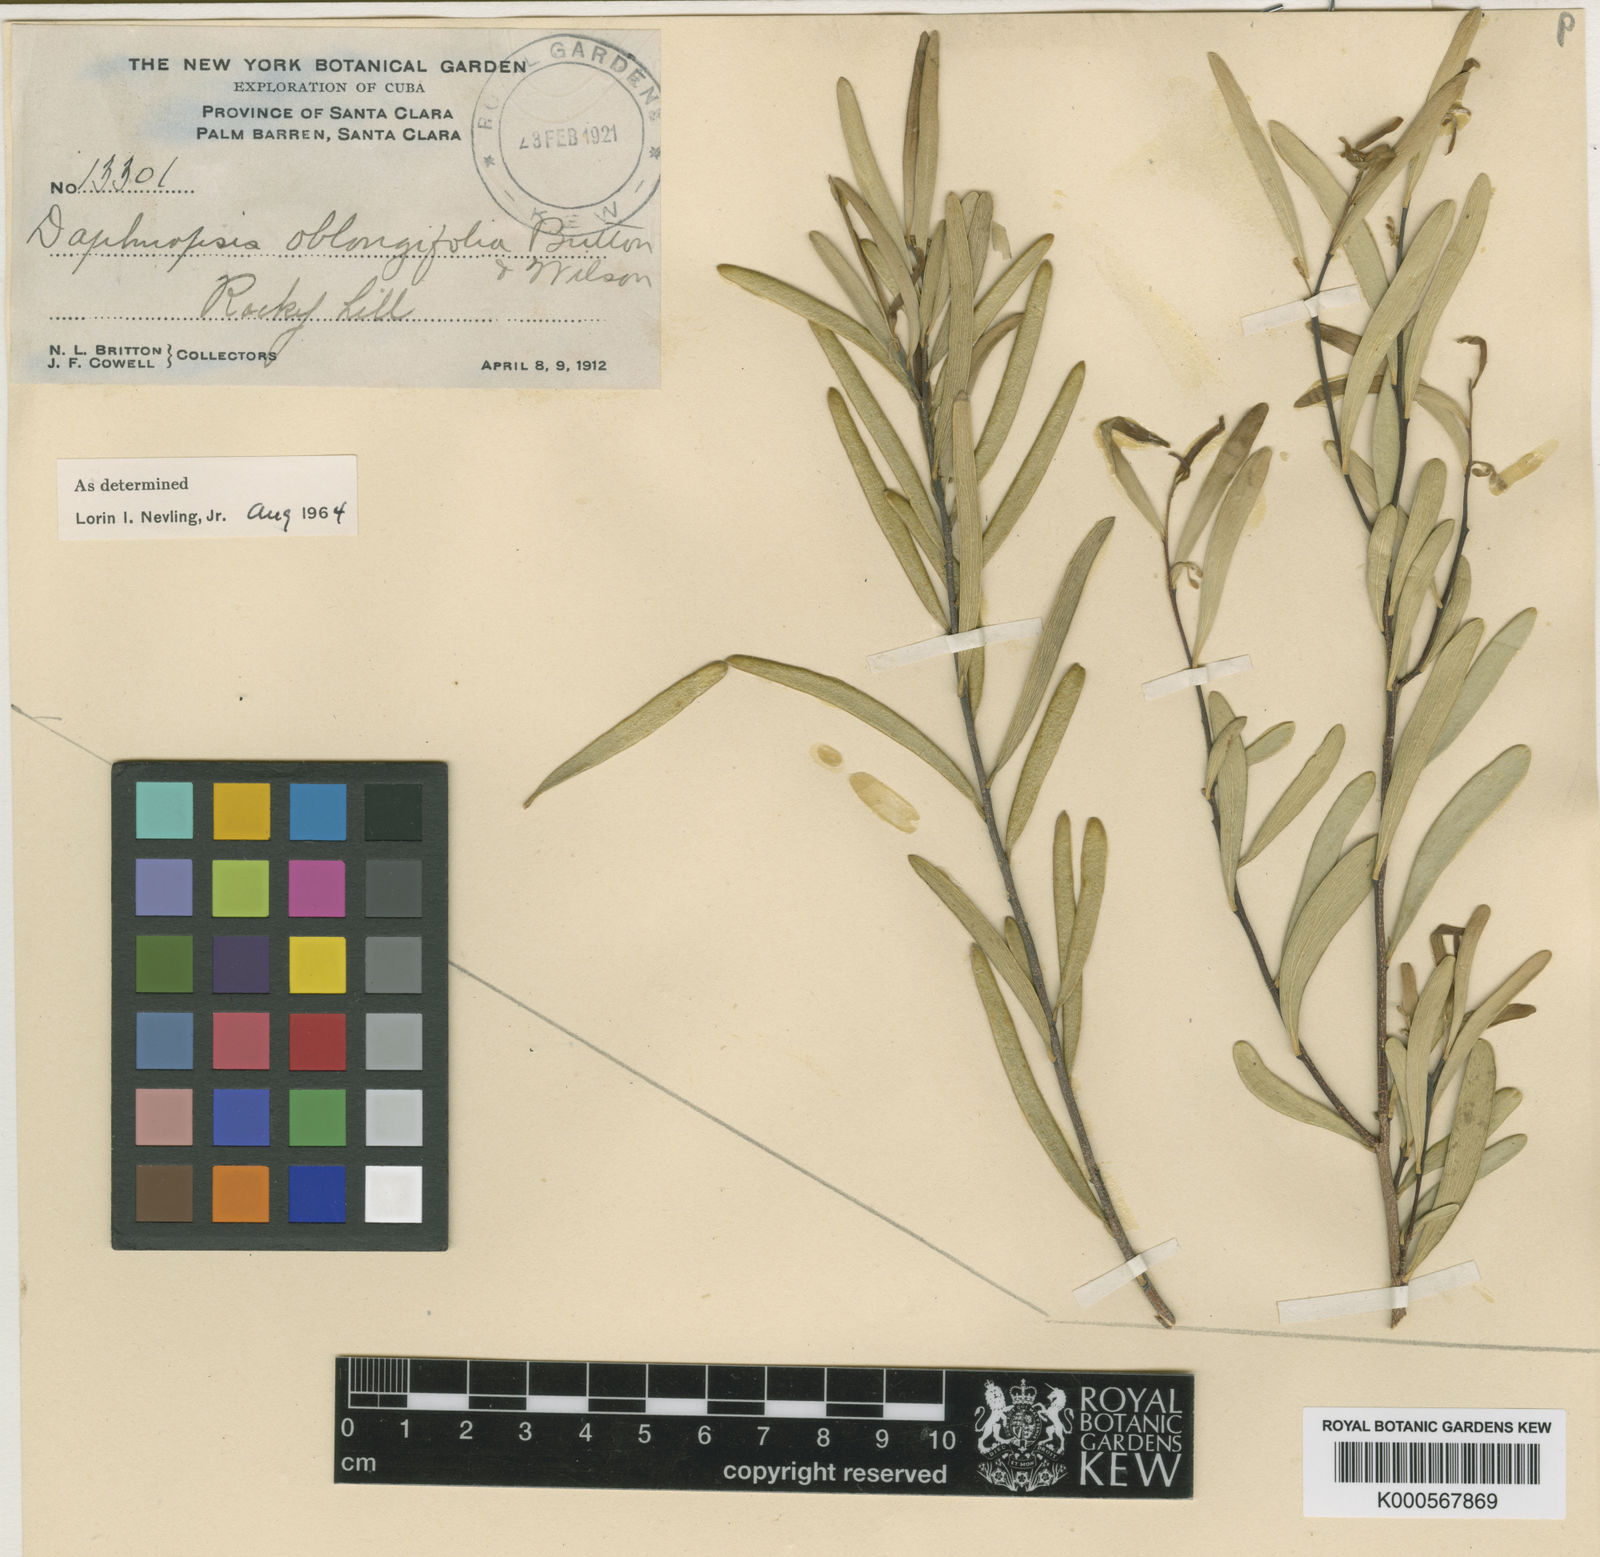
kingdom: Plantae
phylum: Tracheophyta
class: Magnoliopsida
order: Malvales
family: Thymelaeaceae
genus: Daphnopsis
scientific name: Daphnopsis oblongifolia
